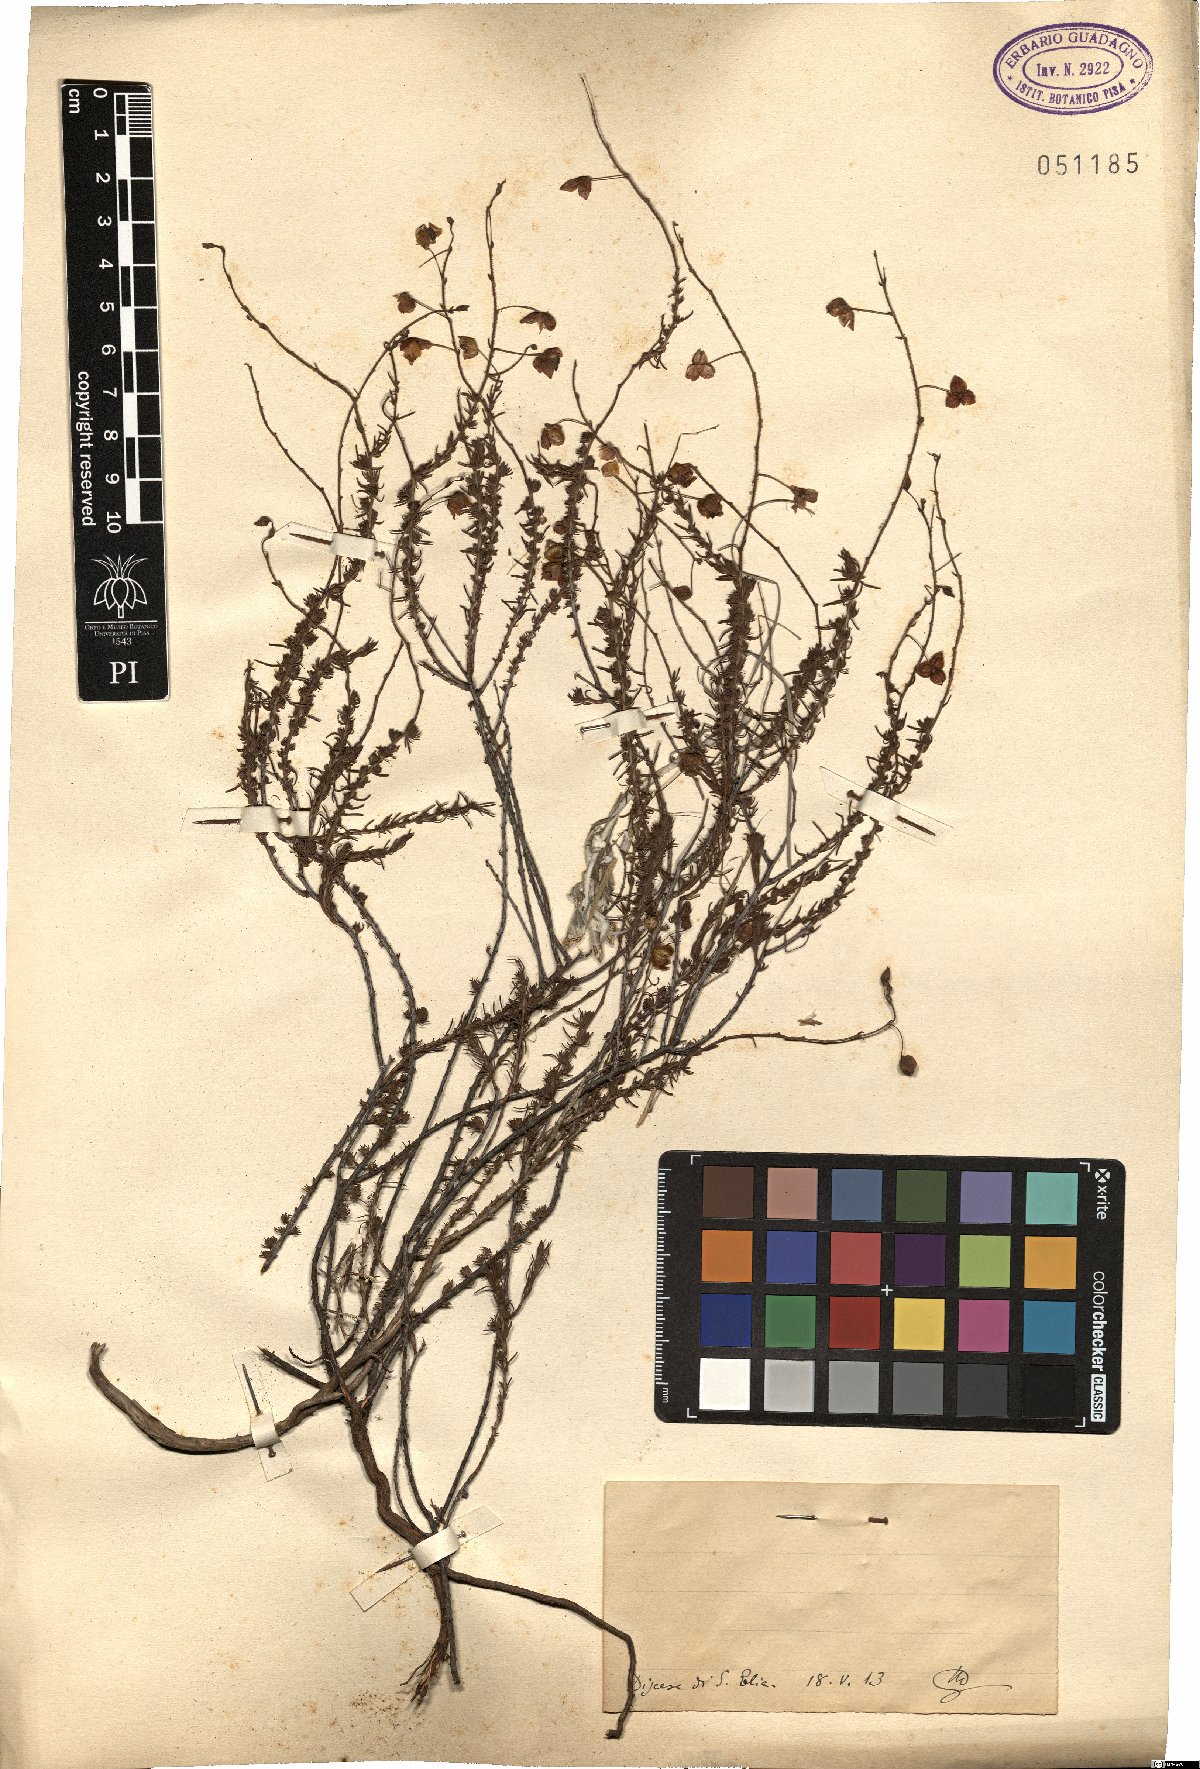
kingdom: Plantae
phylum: Tracheophyta
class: Magnoliopsida
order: Malvales
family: Cistaceae
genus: Helianthemum
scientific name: Helianthemum
